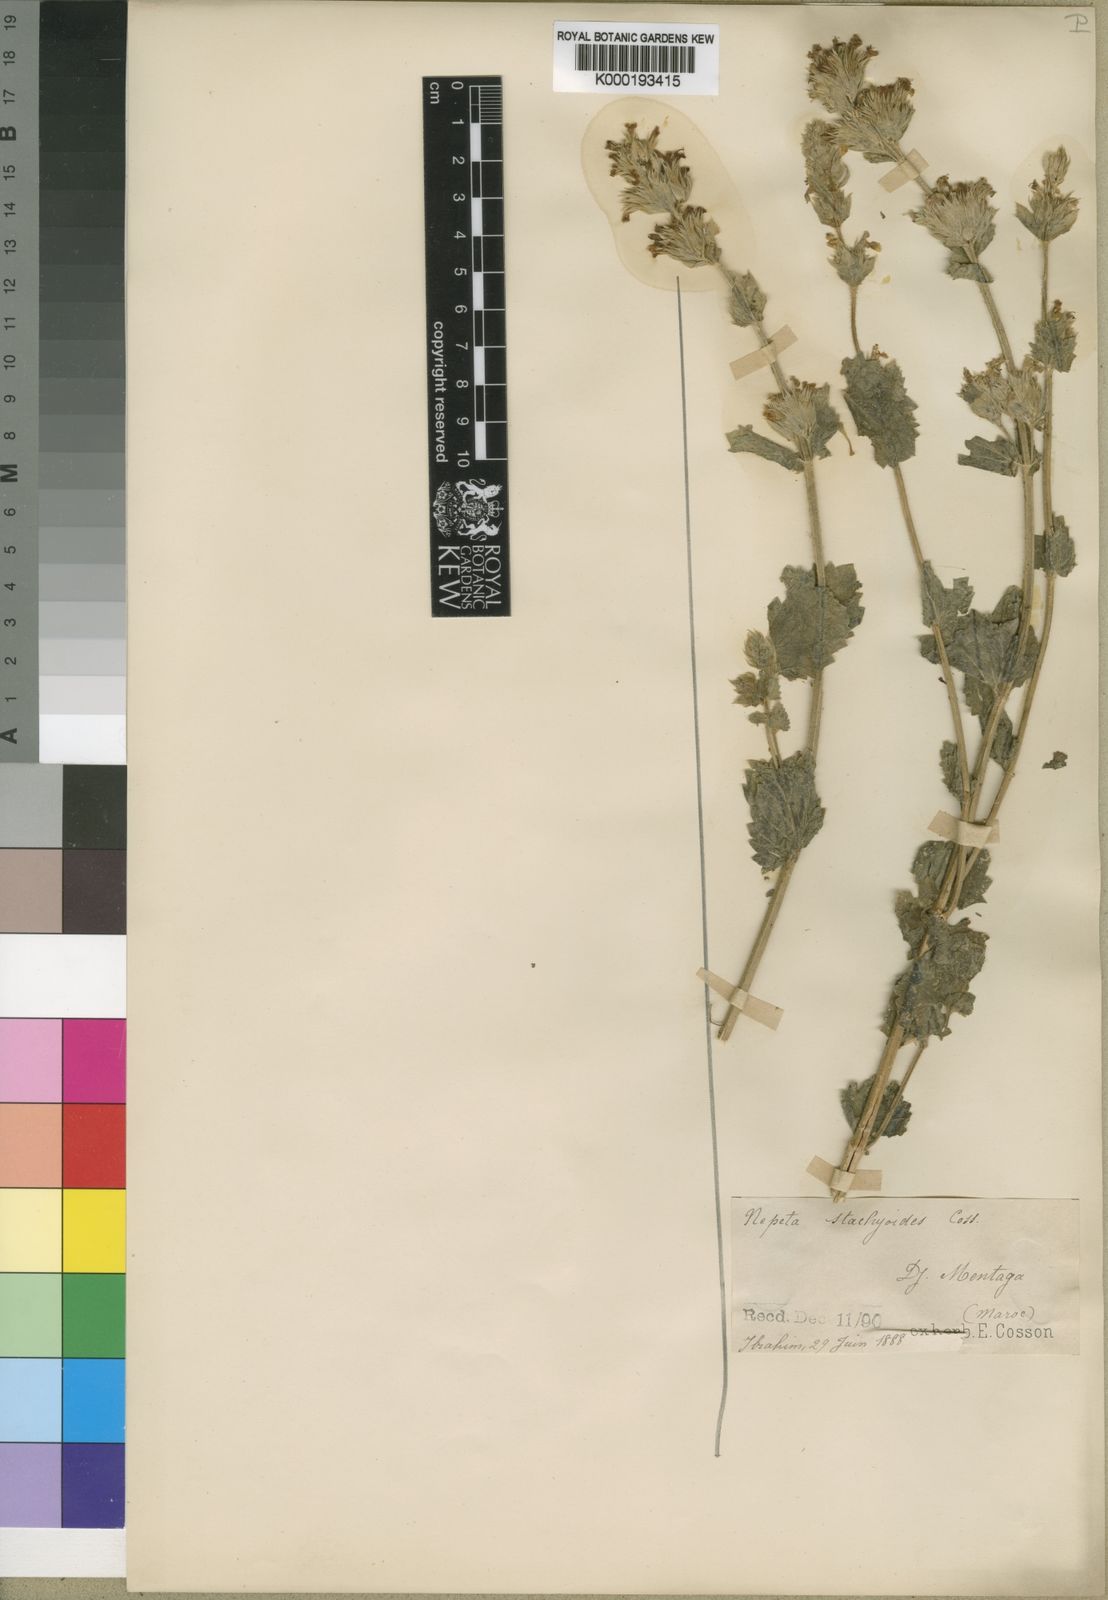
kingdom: Plantae
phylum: Tracheophyta
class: Magnoliopsida
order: Lamiales
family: Lamiaceae
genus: Nepeta
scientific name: Nepeta
